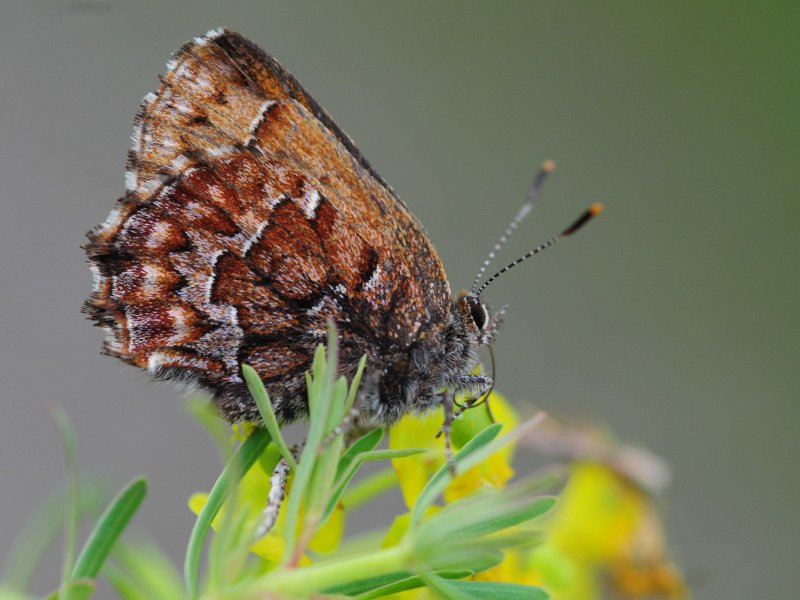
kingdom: Animalia
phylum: Arthropoda
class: Insecta
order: Lepidoptera
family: Lycaenidae
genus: Incisalia
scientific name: Incisalia niphon
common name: Eastern Pine Elfin
